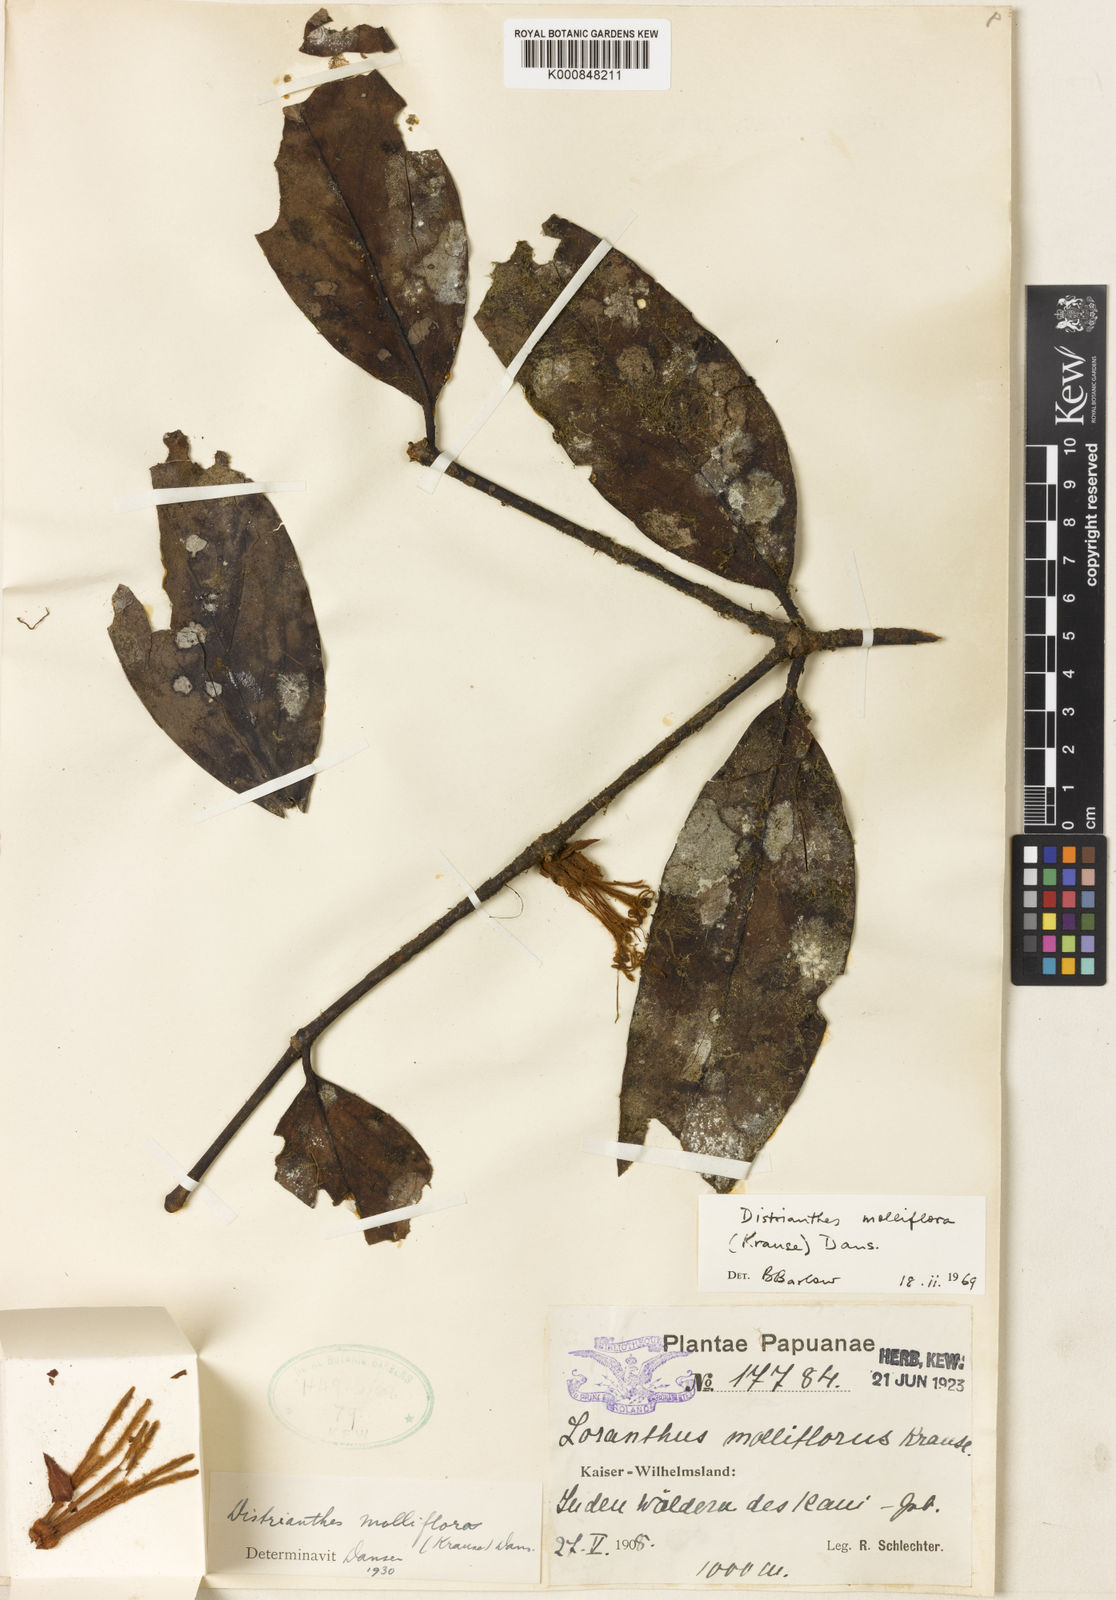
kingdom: Plantae
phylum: Tracheophyta
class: Magnoliopsida
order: Santalales
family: Loranthaceae
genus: Distrianthes
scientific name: Distrianthes molliflora
